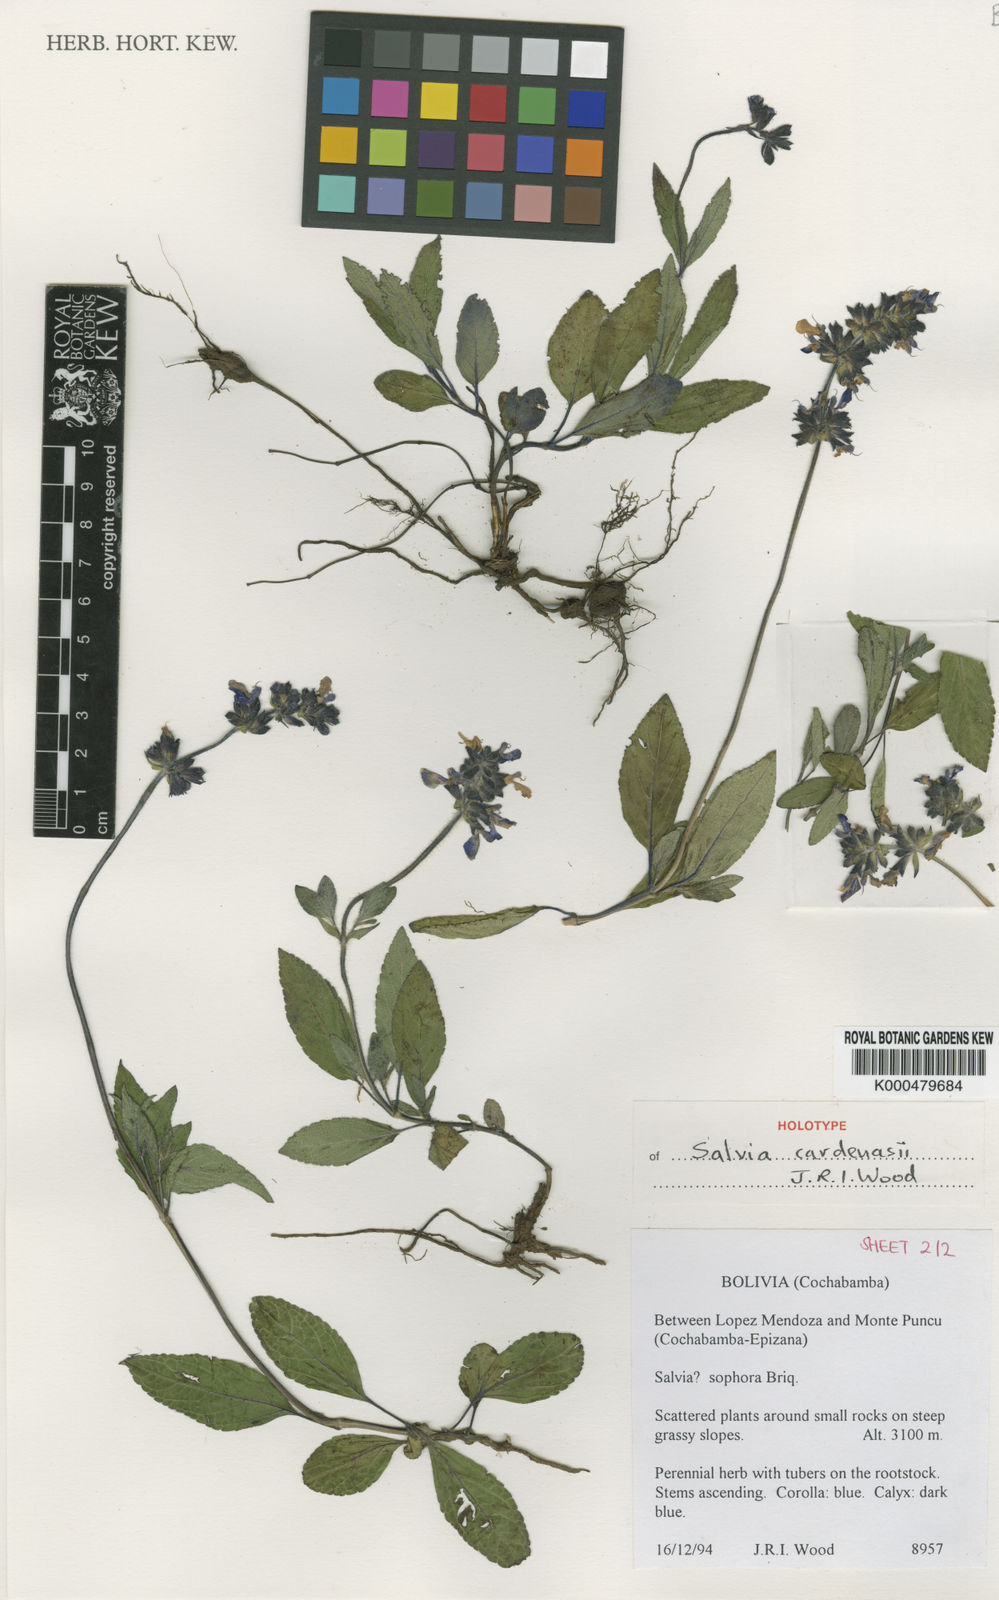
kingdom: Plantae
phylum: Tracheophyta
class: Magnoliopsida
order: Lamiales
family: Lamiaceae
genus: Salvia
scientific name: Salvia cardenasii
